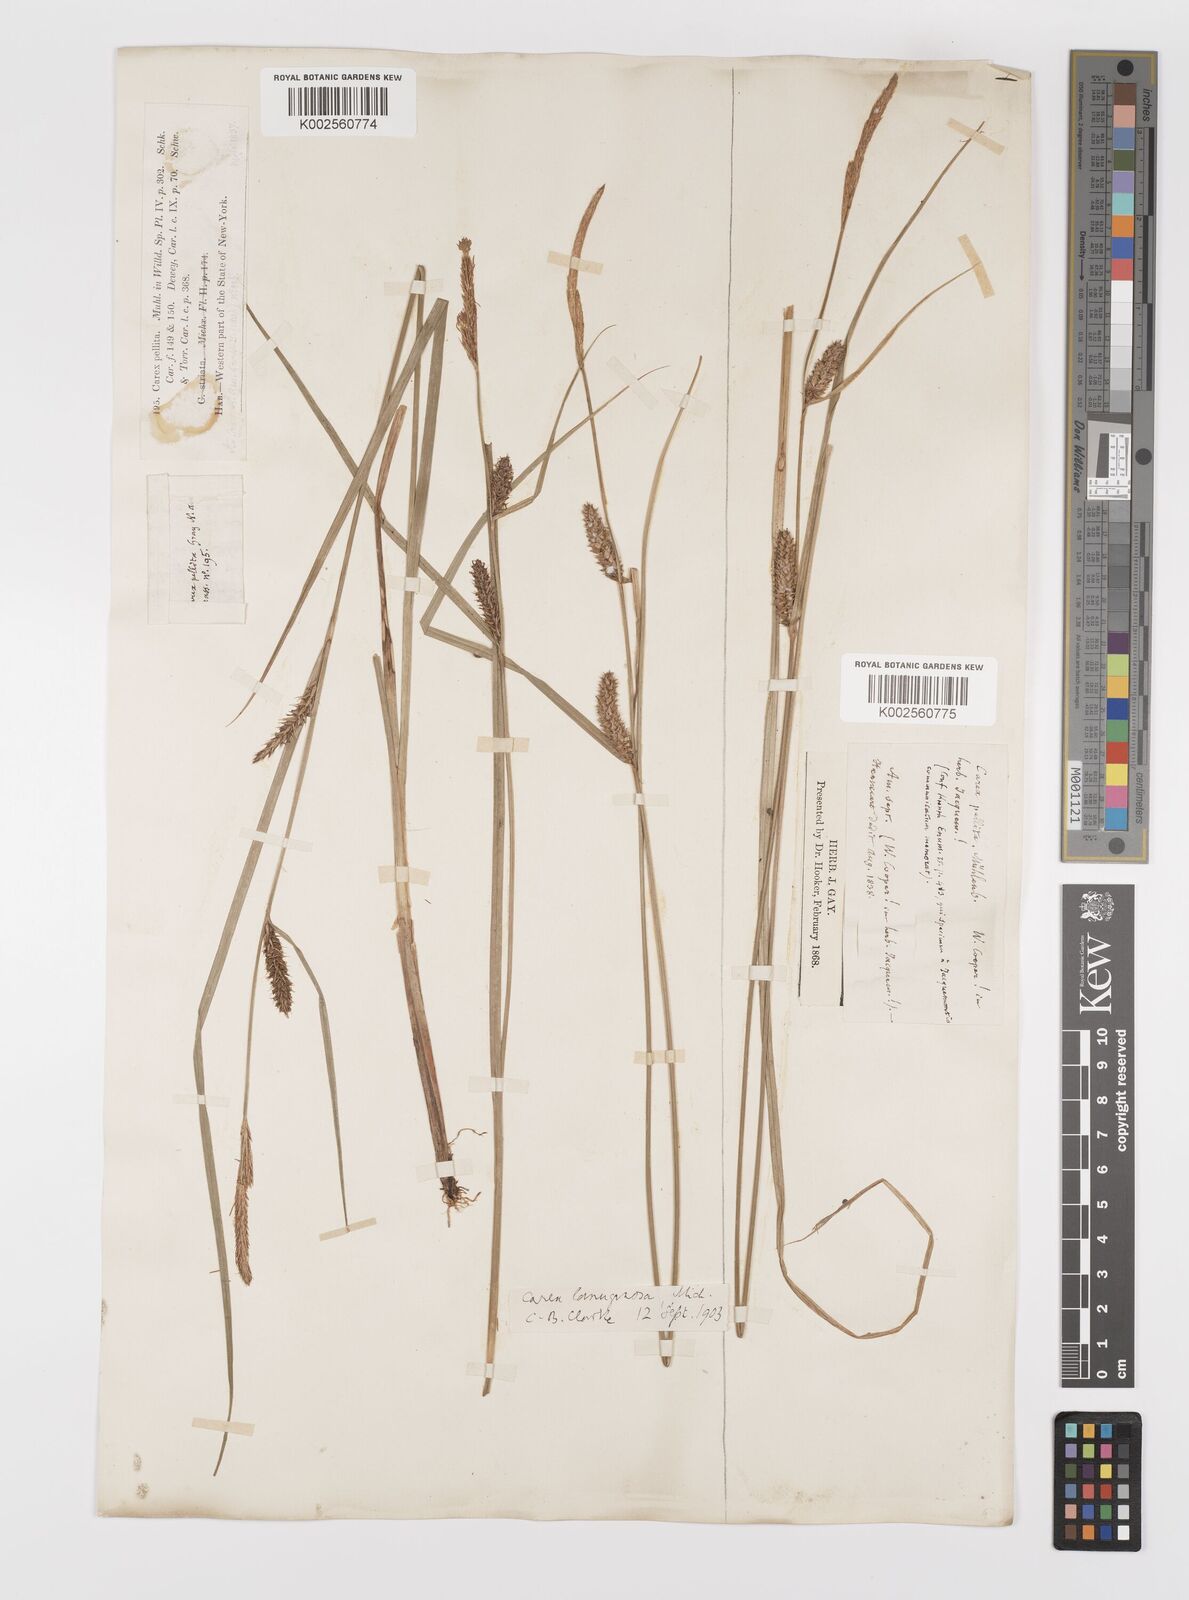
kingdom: Plantae
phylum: Tracheophyta
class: Liliopsida
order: Poales
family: Cyperaceae
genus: Carex
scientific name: Carex lasiocarpa
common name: Slender sedge
